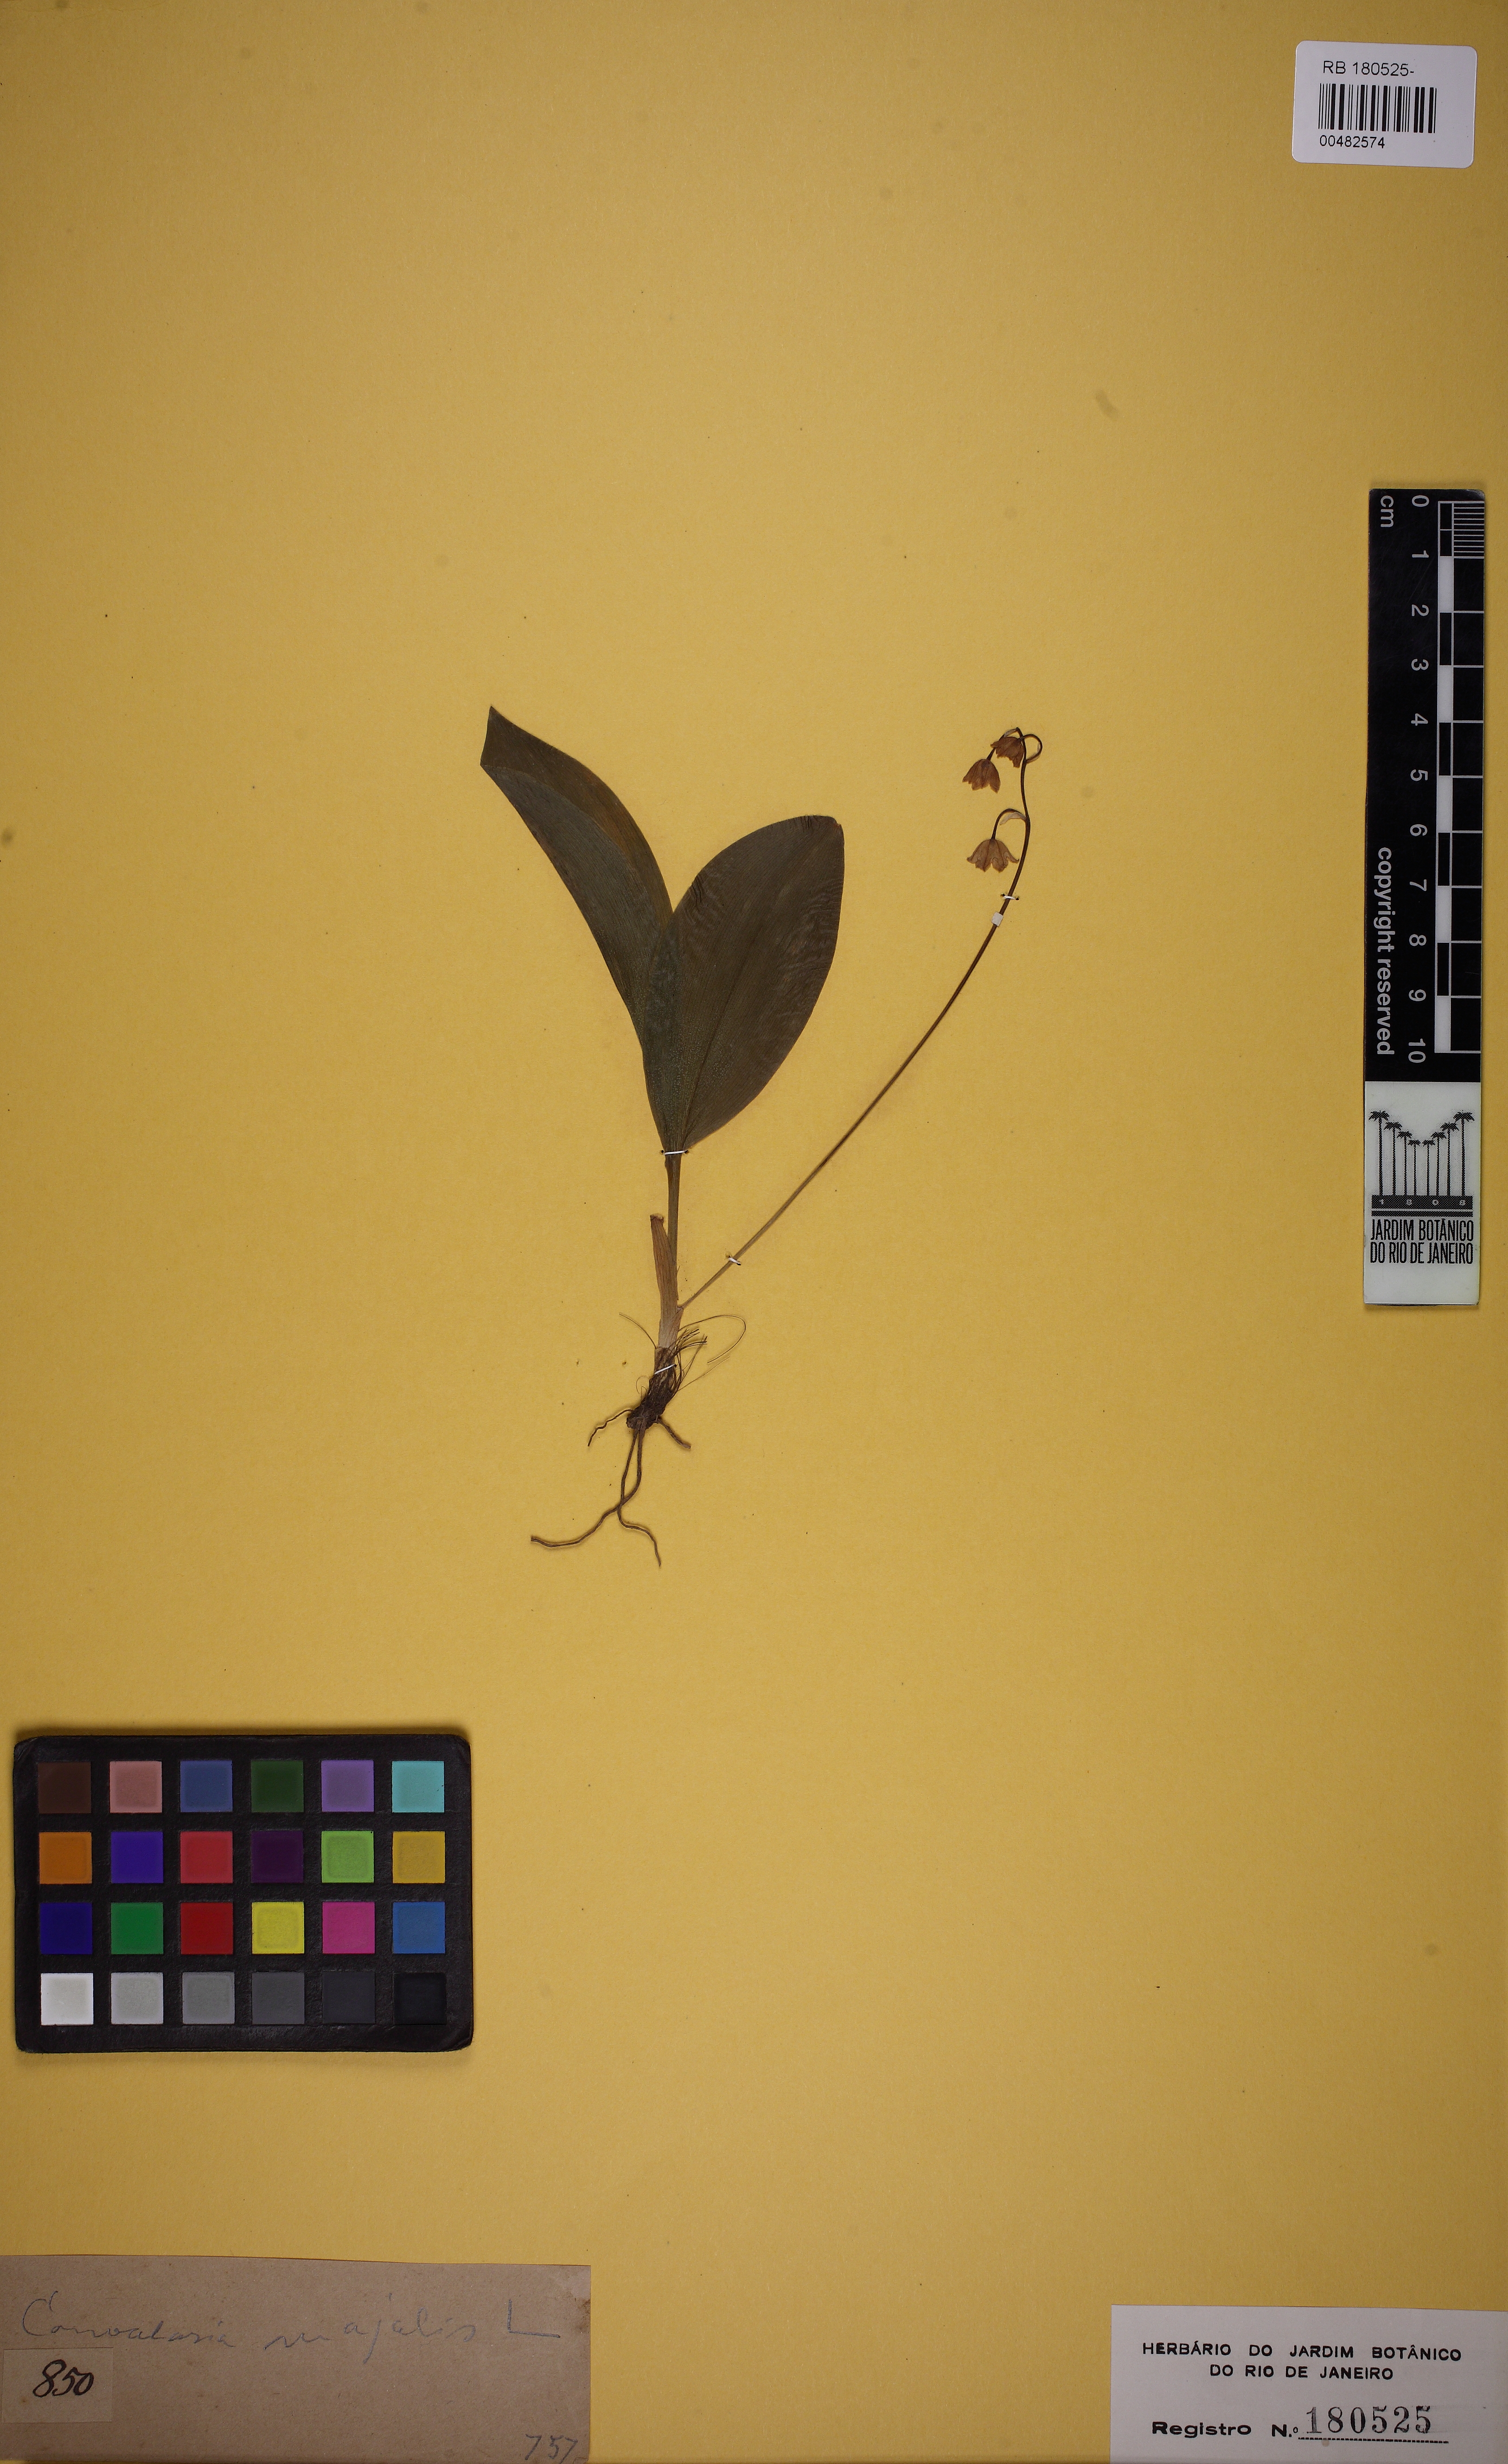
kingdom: Plantae
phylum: Tracheophyta
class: Liliopsida
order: Asparagales
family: Asparagaceae
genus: Convallaria
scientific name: Convallaria majalis
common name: Lily-of-the-valley
